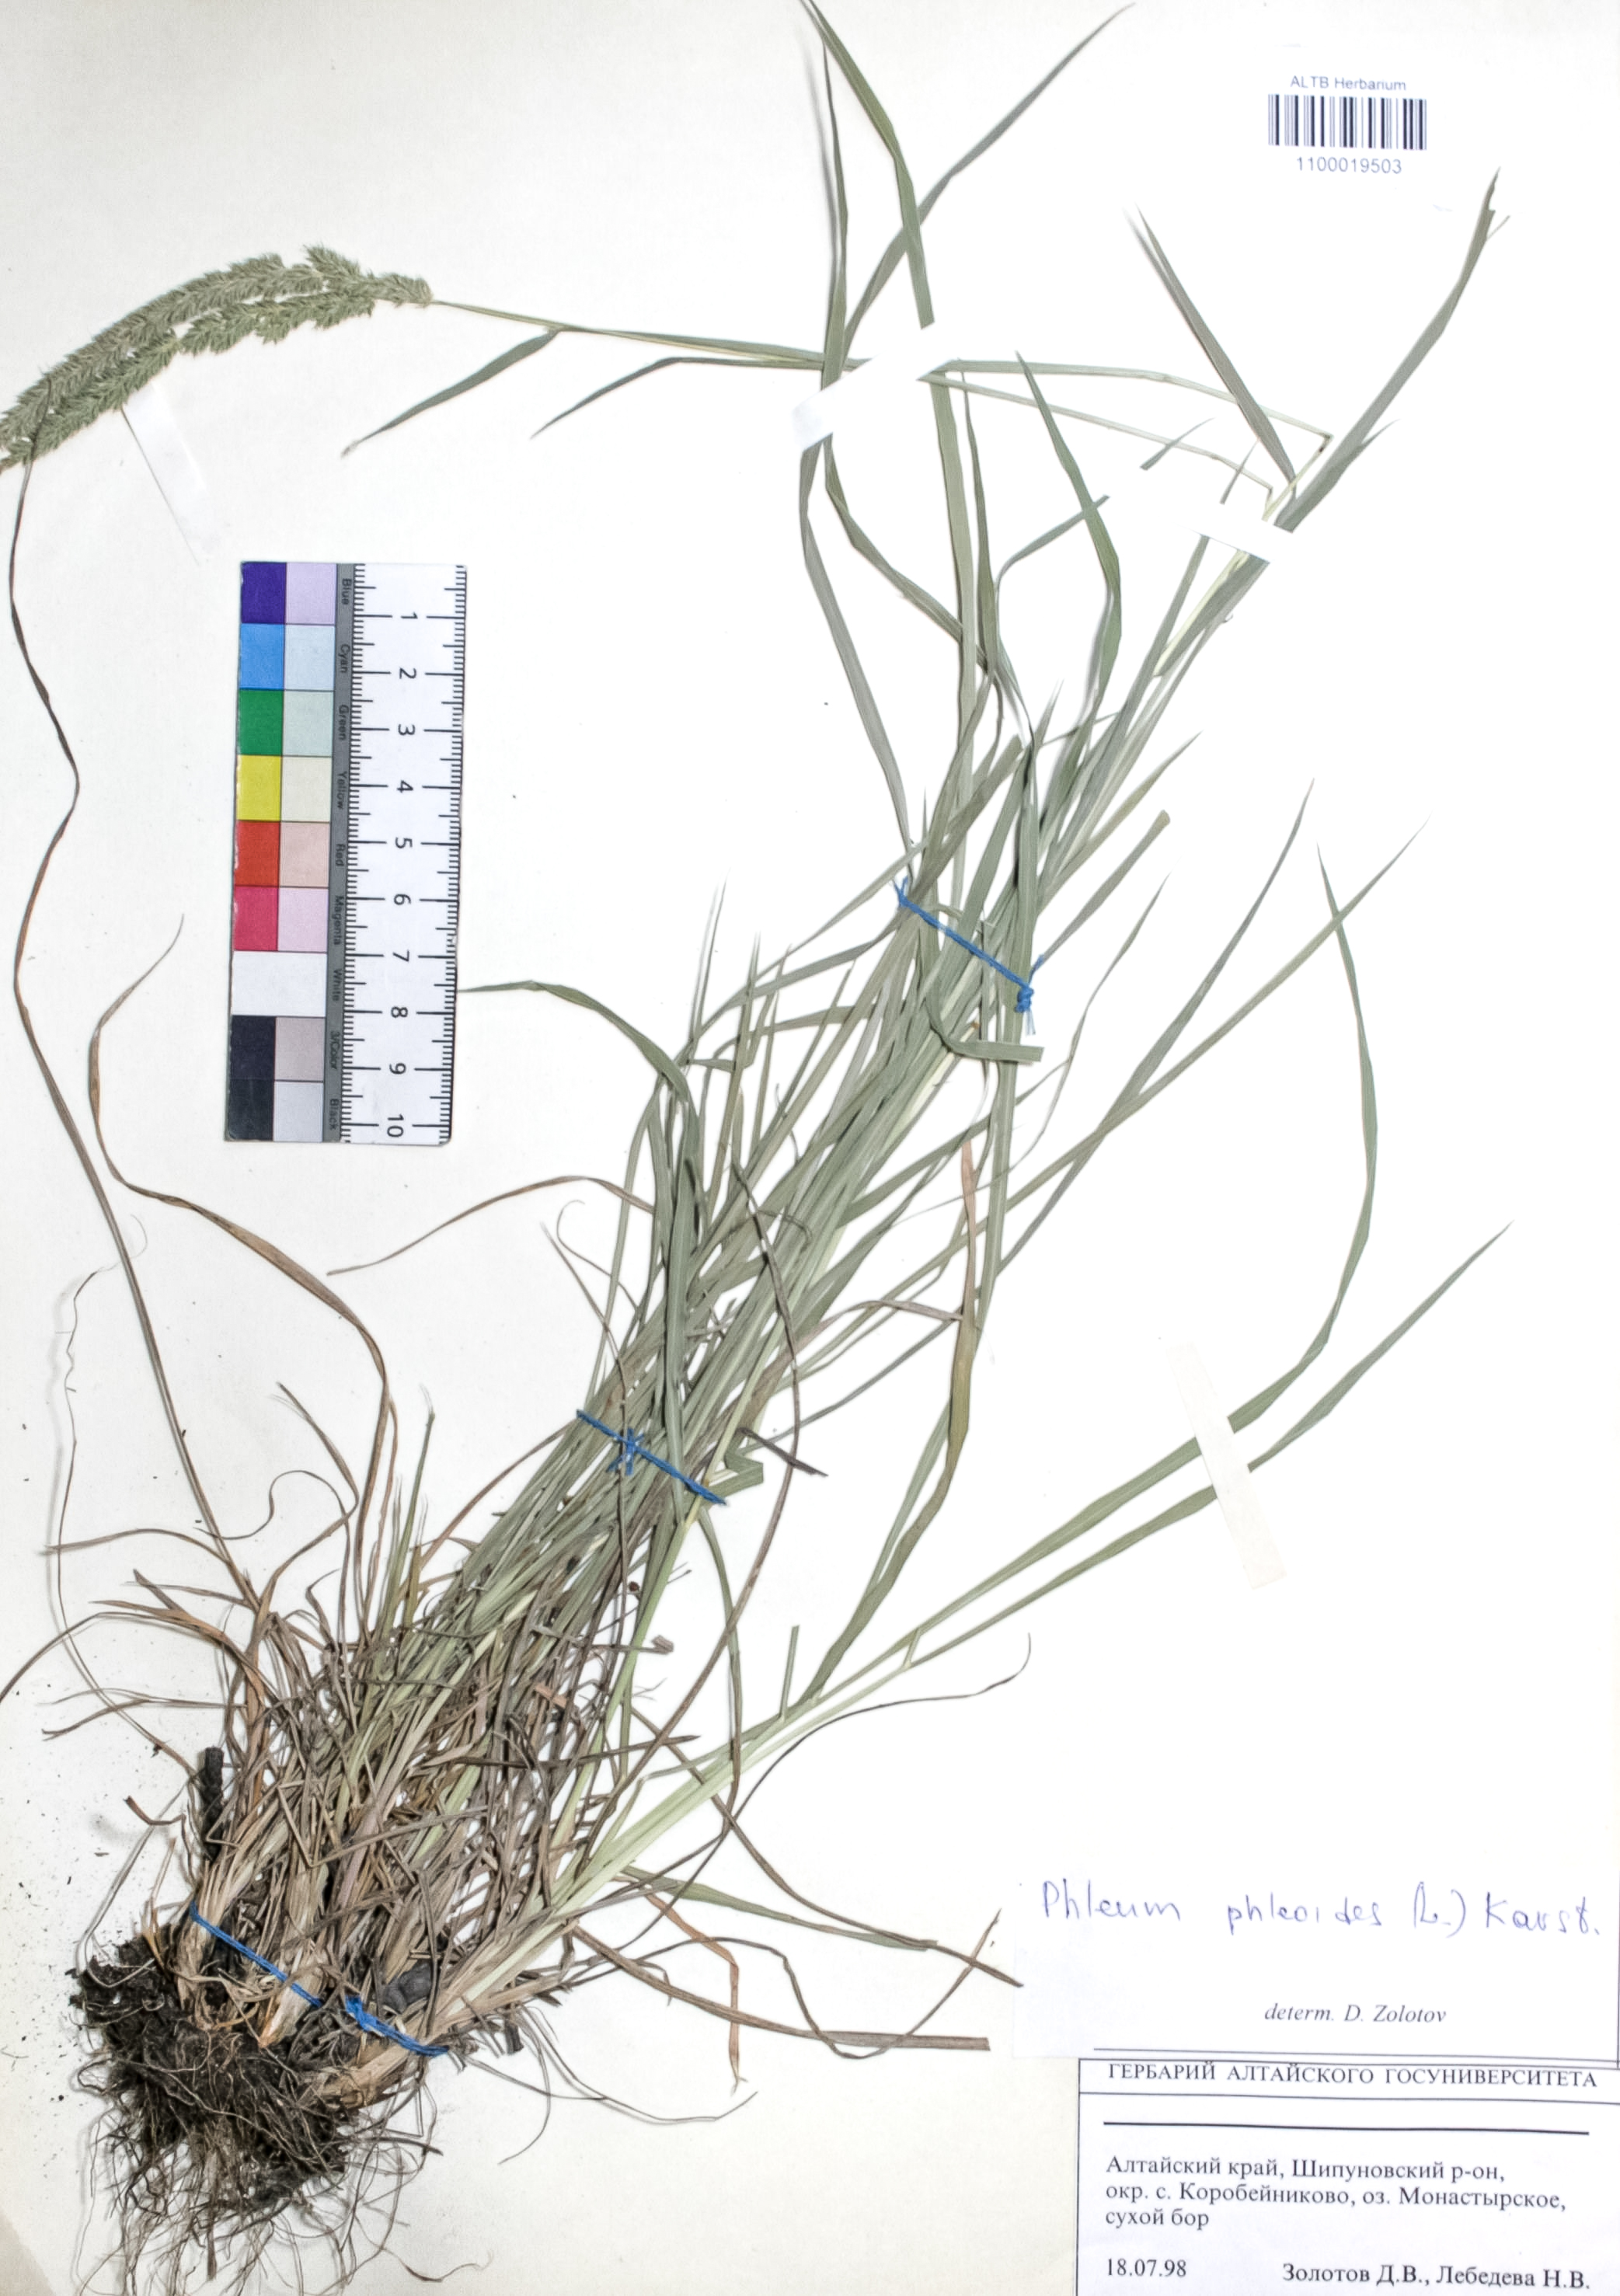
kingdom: Plantae
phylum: Tracheophyta
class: Liliopsida
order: Poales
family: Poaceae
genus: Phleum
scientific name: Phleum phleoides
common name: Purple-stem cat's-tail
